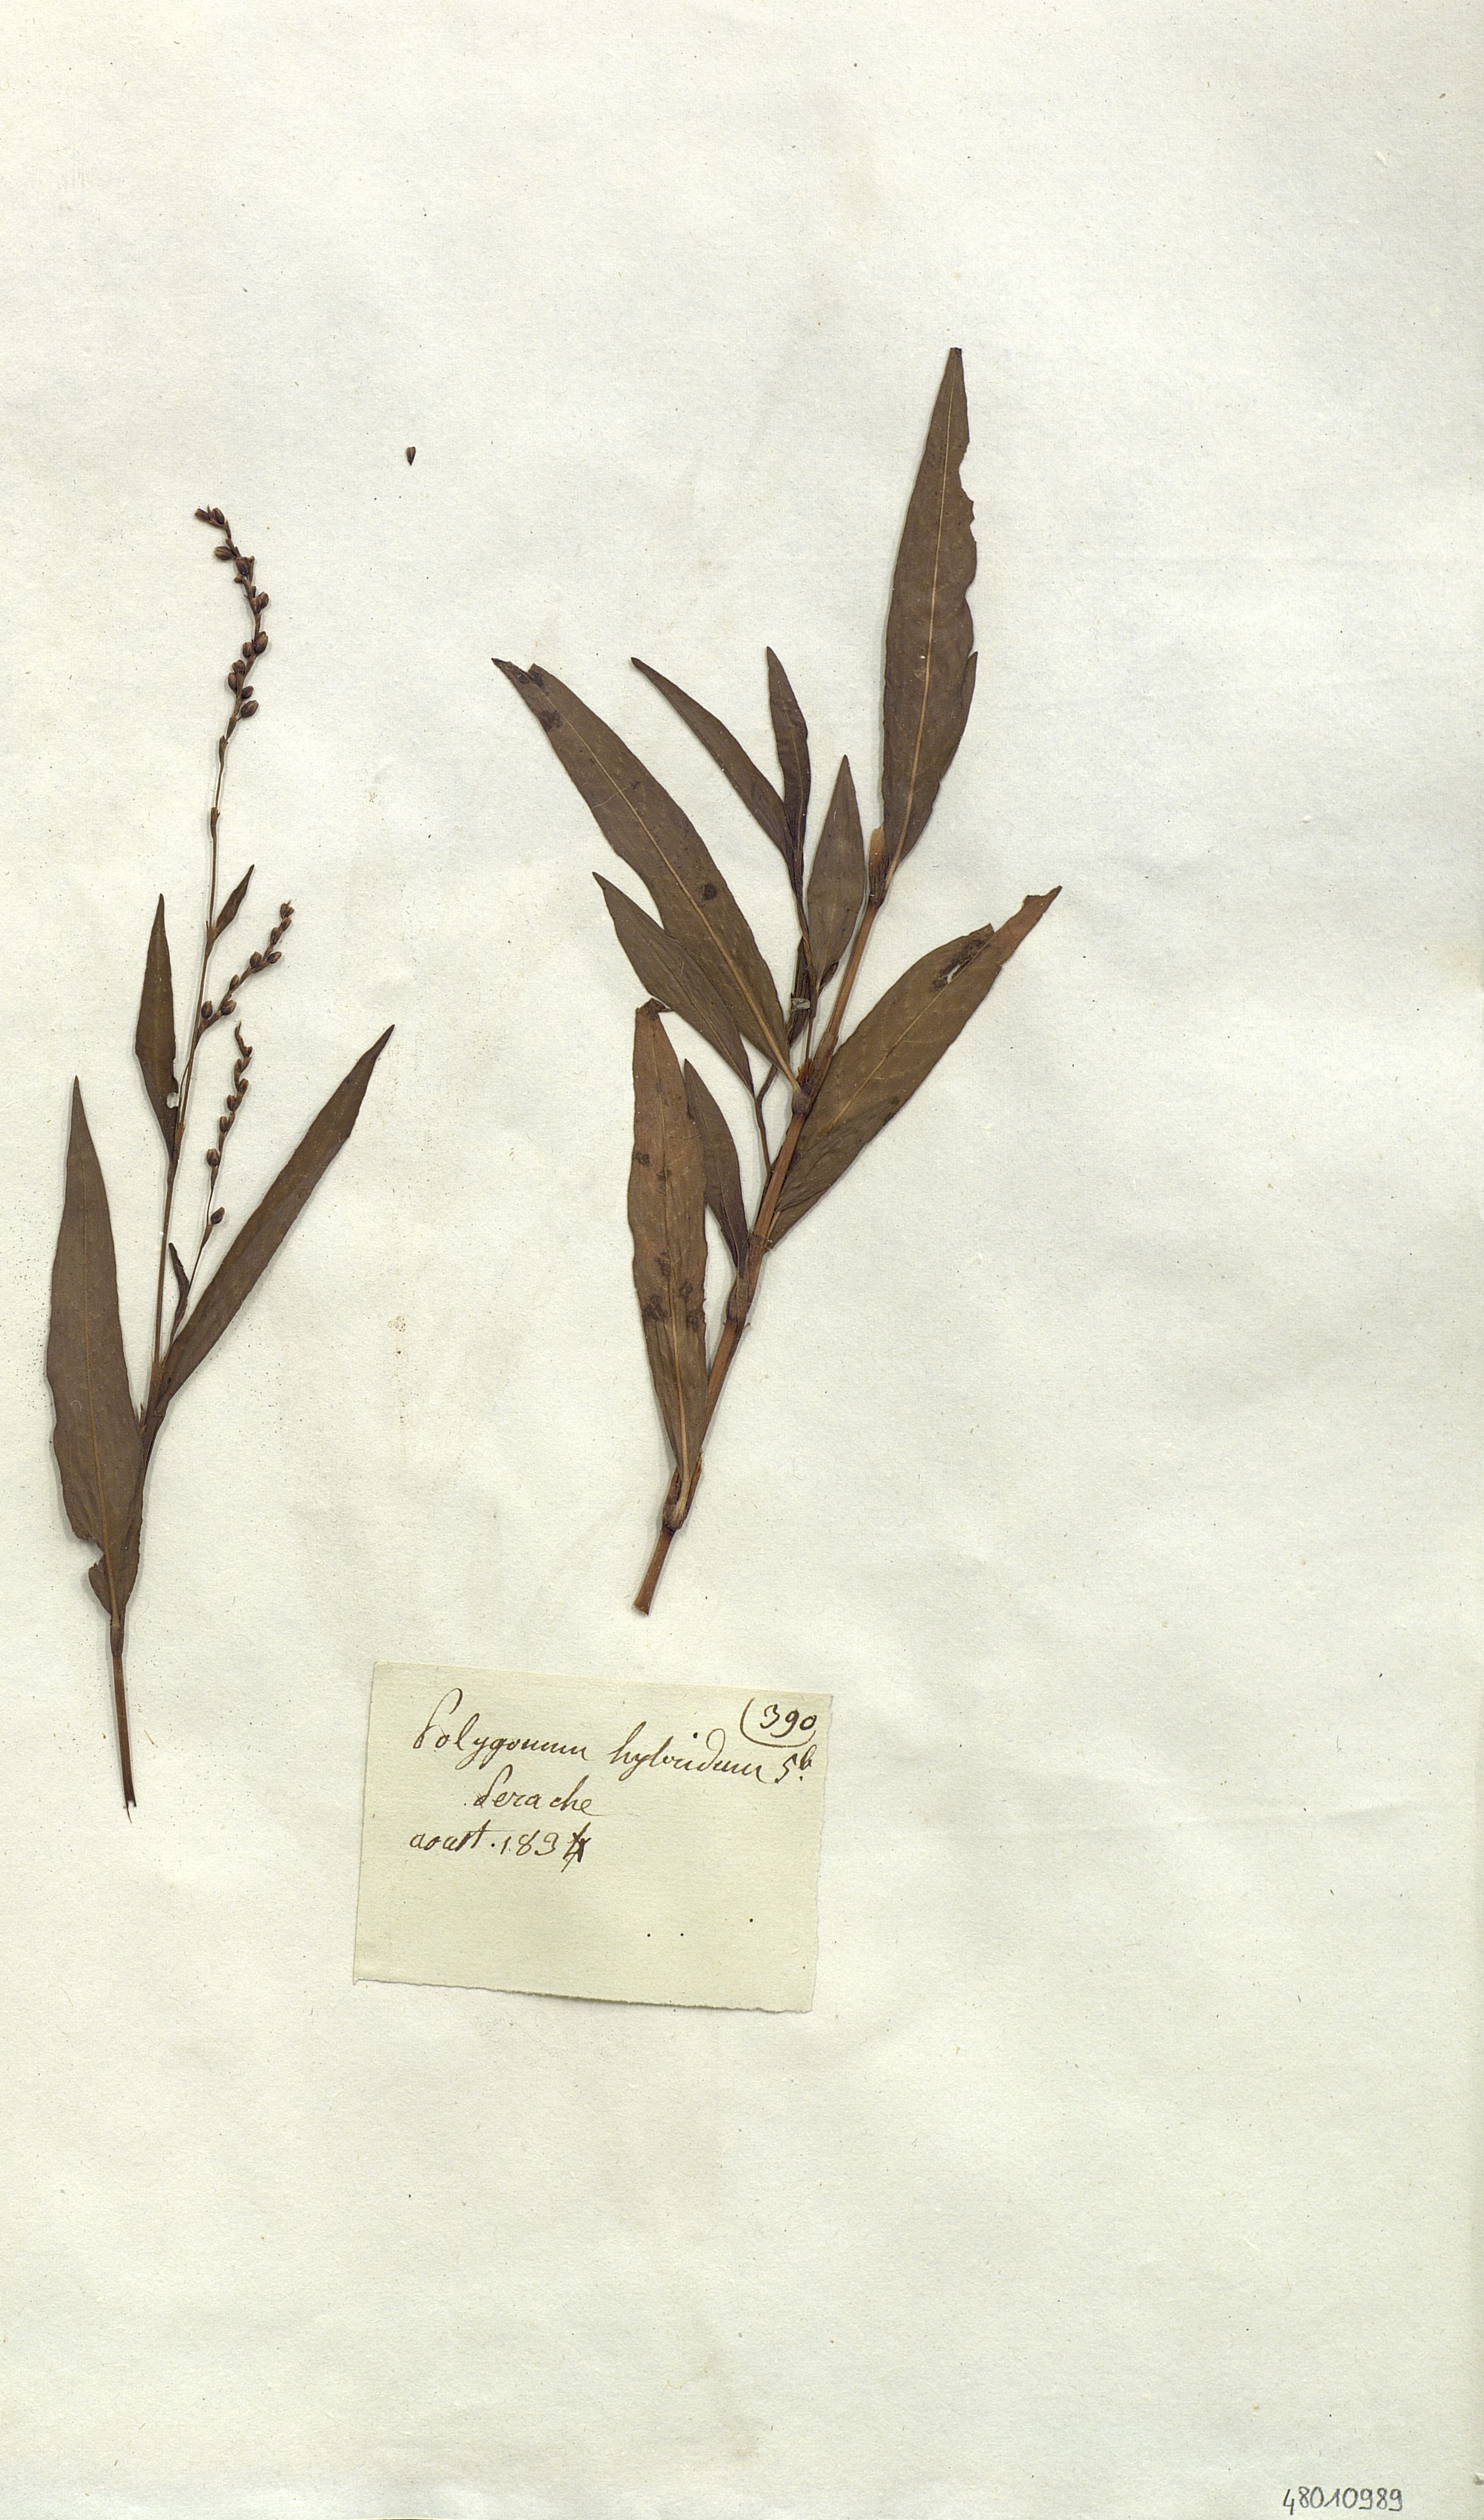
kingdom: Plantae
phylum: Tracheophyta
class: Magnoliopsida
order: Caryophyllales
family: Polygonaceae
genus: Persicaria
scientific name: Persicaria hybrida
